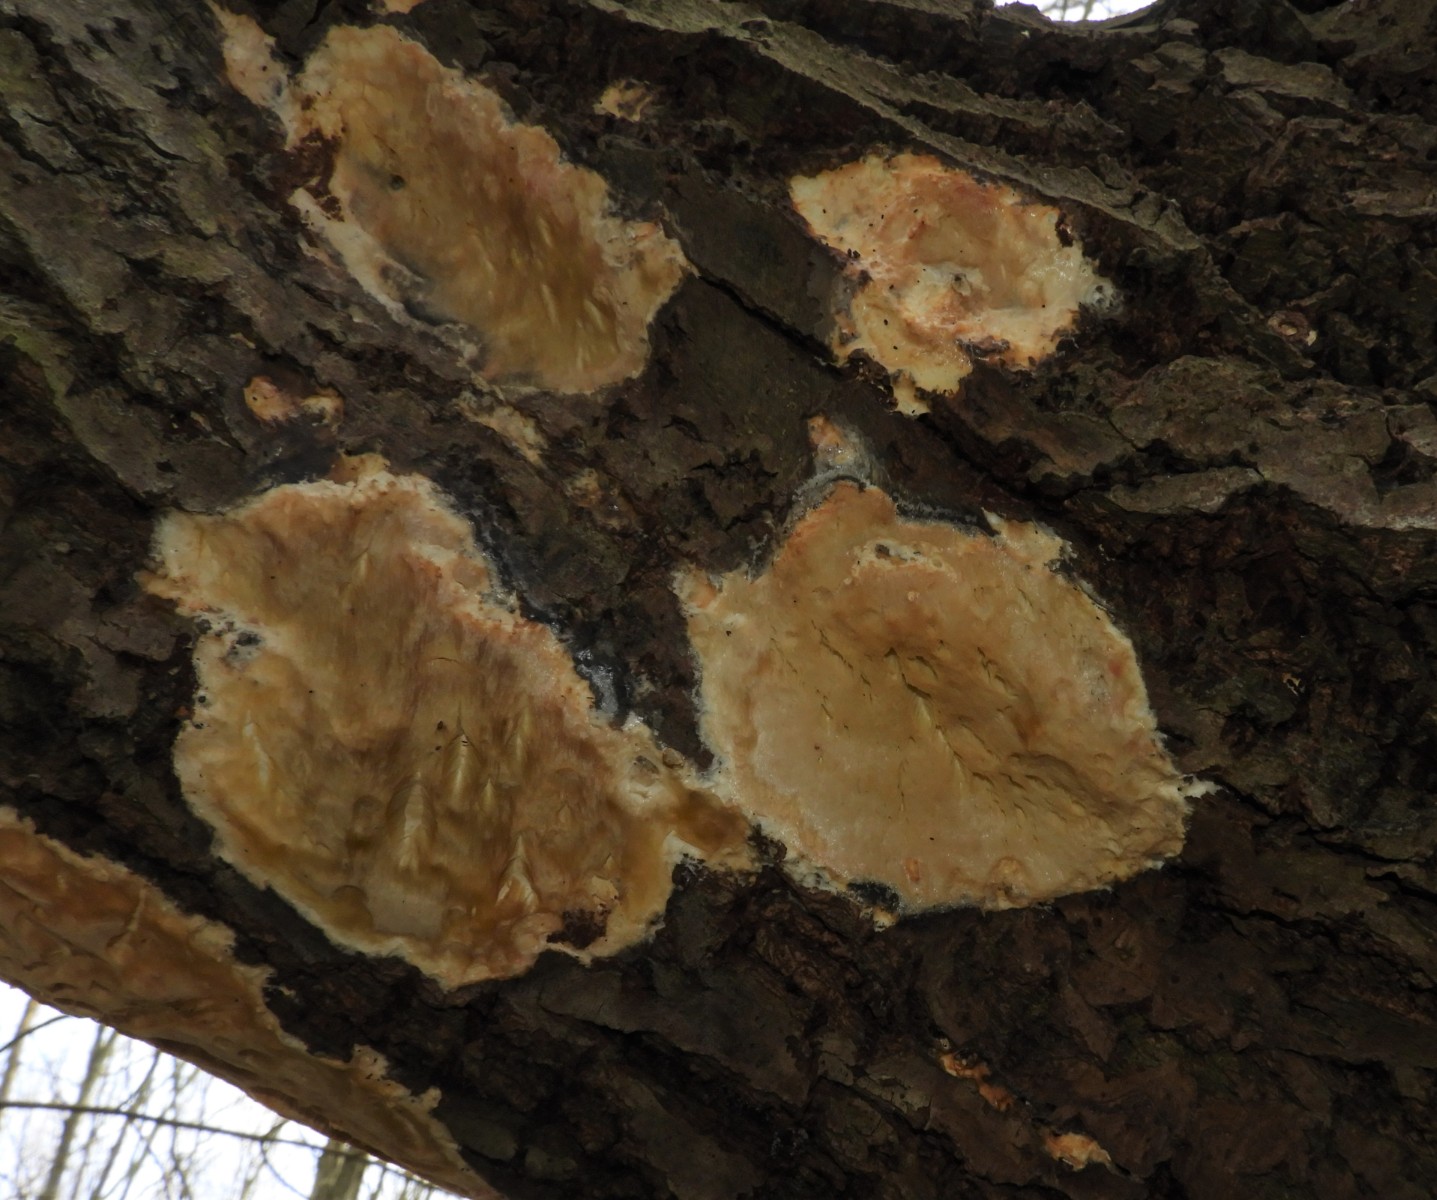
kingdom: Fungi
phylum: Basidiomycota
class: Agaricomycetes
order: Polyporales
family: Irpicaceae
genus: Resiniporus
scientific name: Resiniporus resinascens
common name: trist pastelporesvamp
